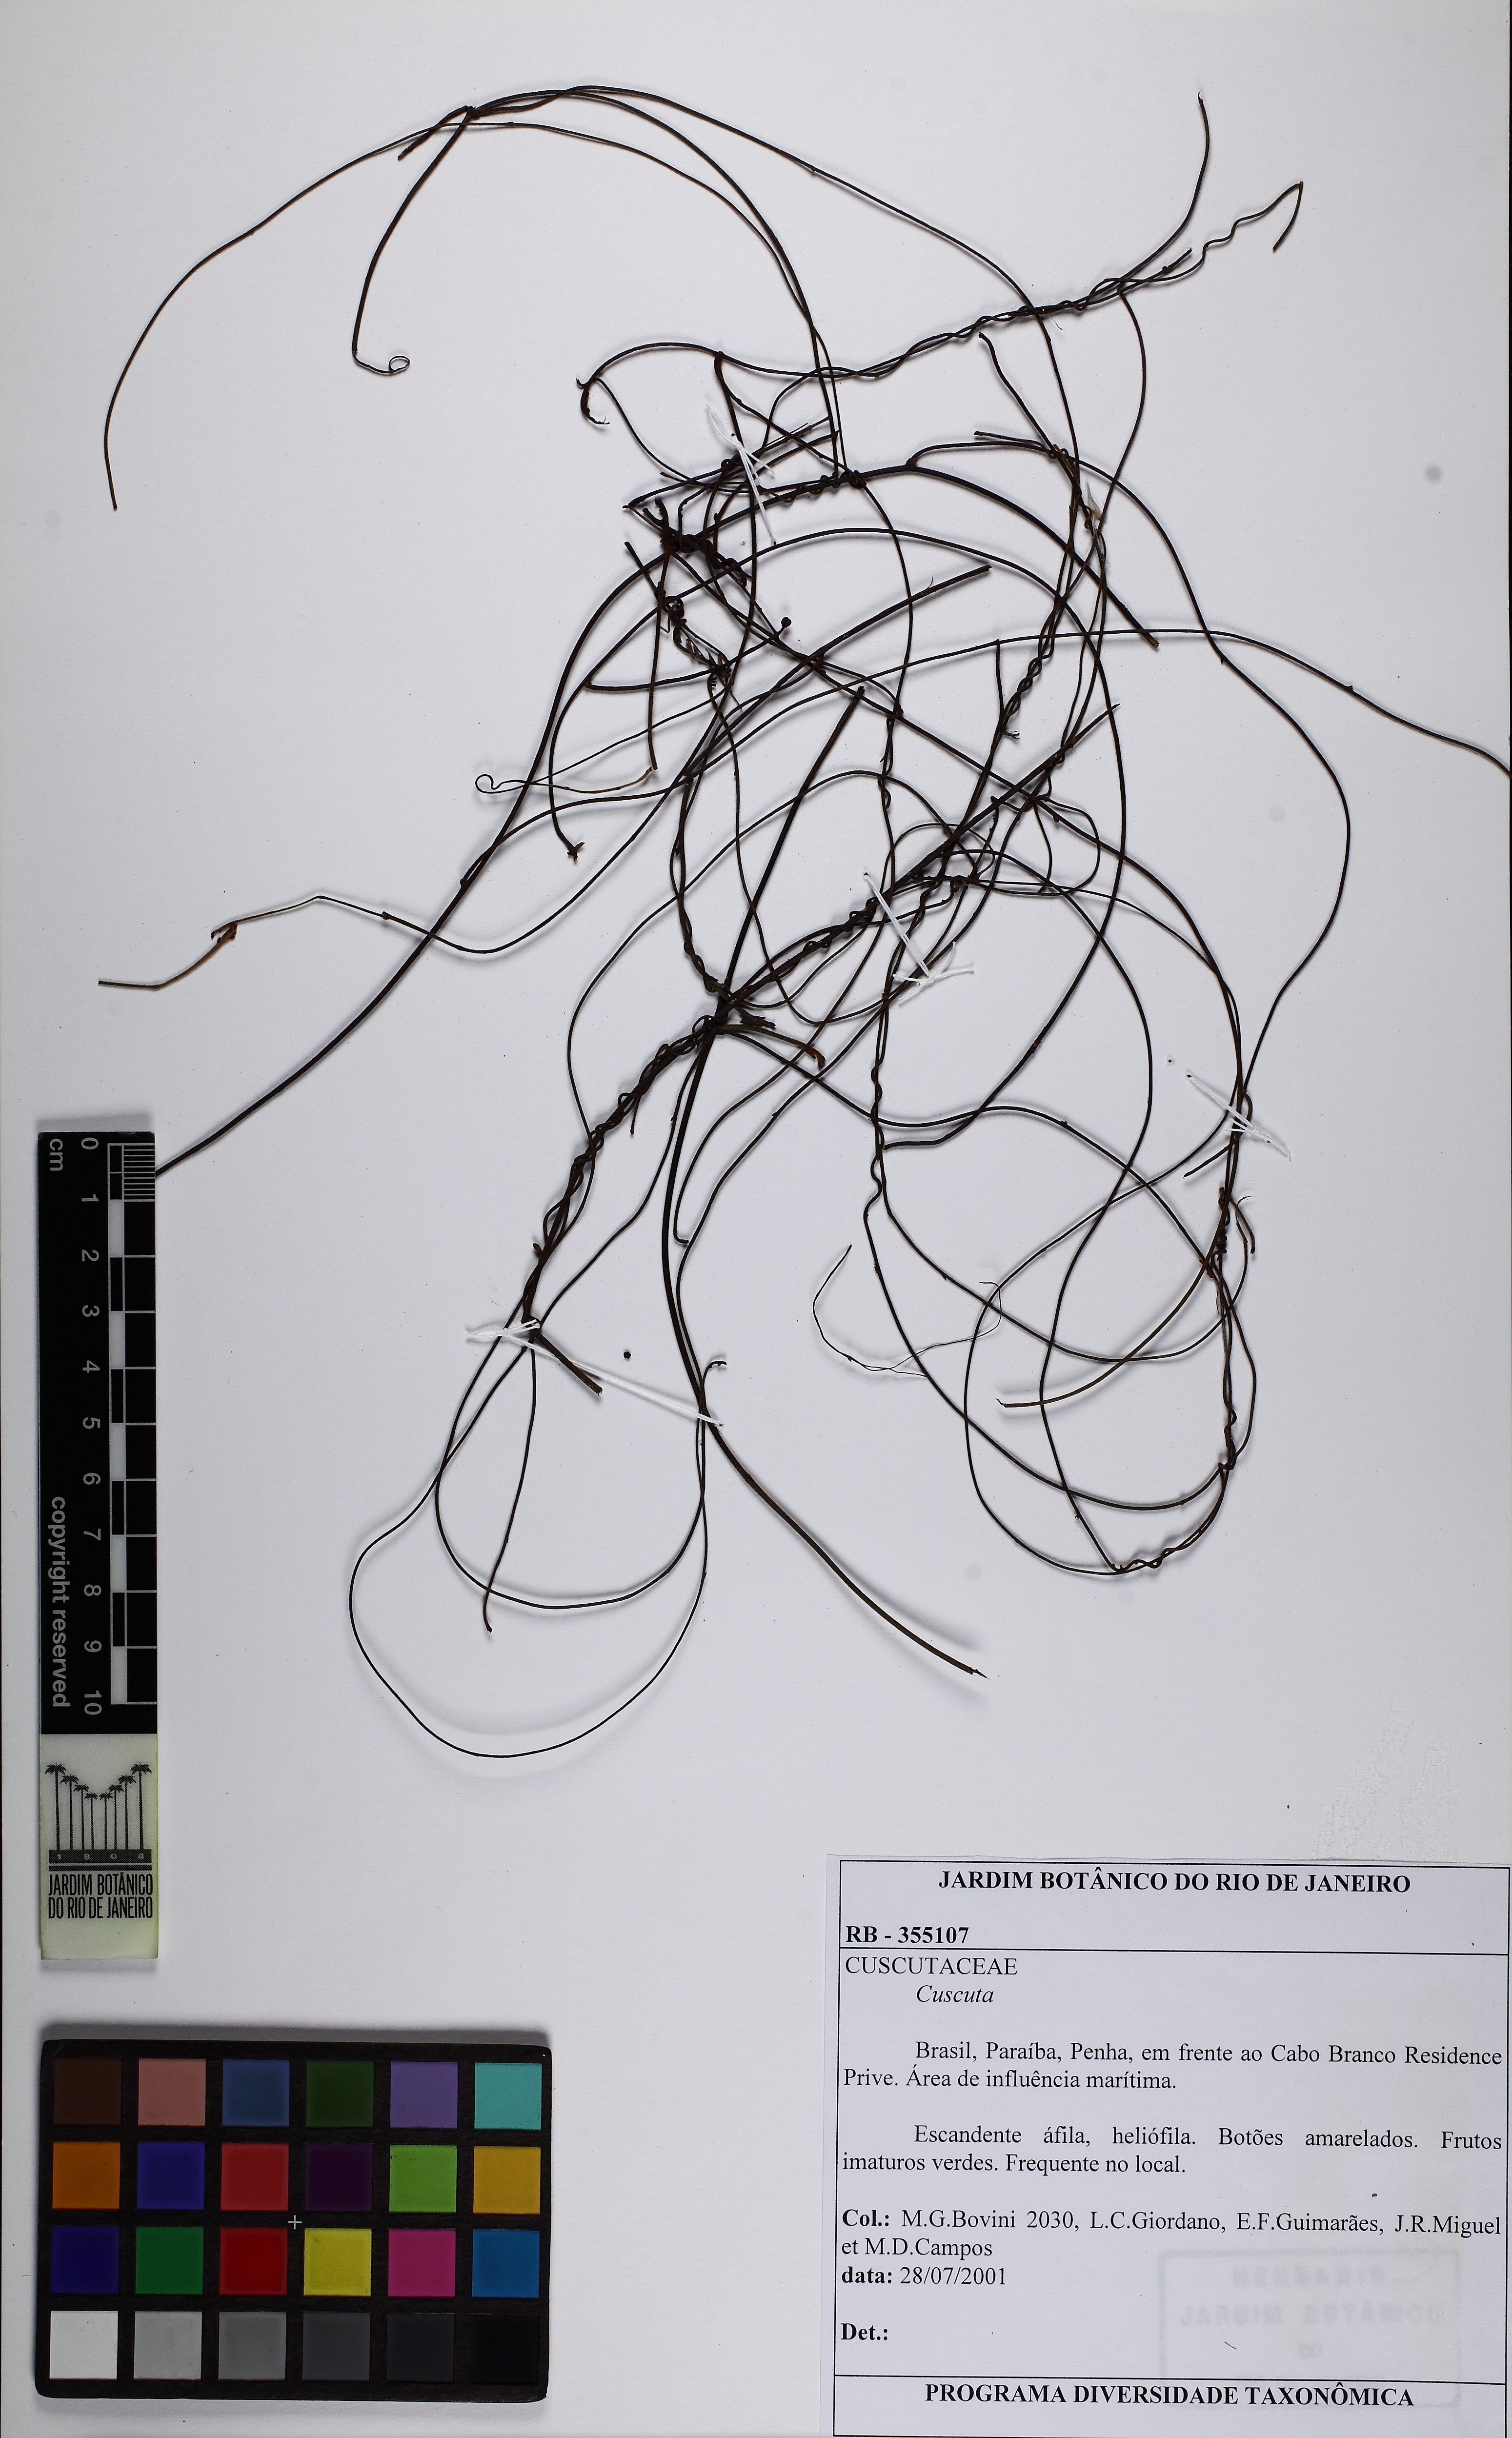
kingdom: Plantae
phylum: Tracheophyta
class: Magnoliopsida
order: Laurales
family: Lauraceae
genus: Cassytha
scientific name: Cassytha
